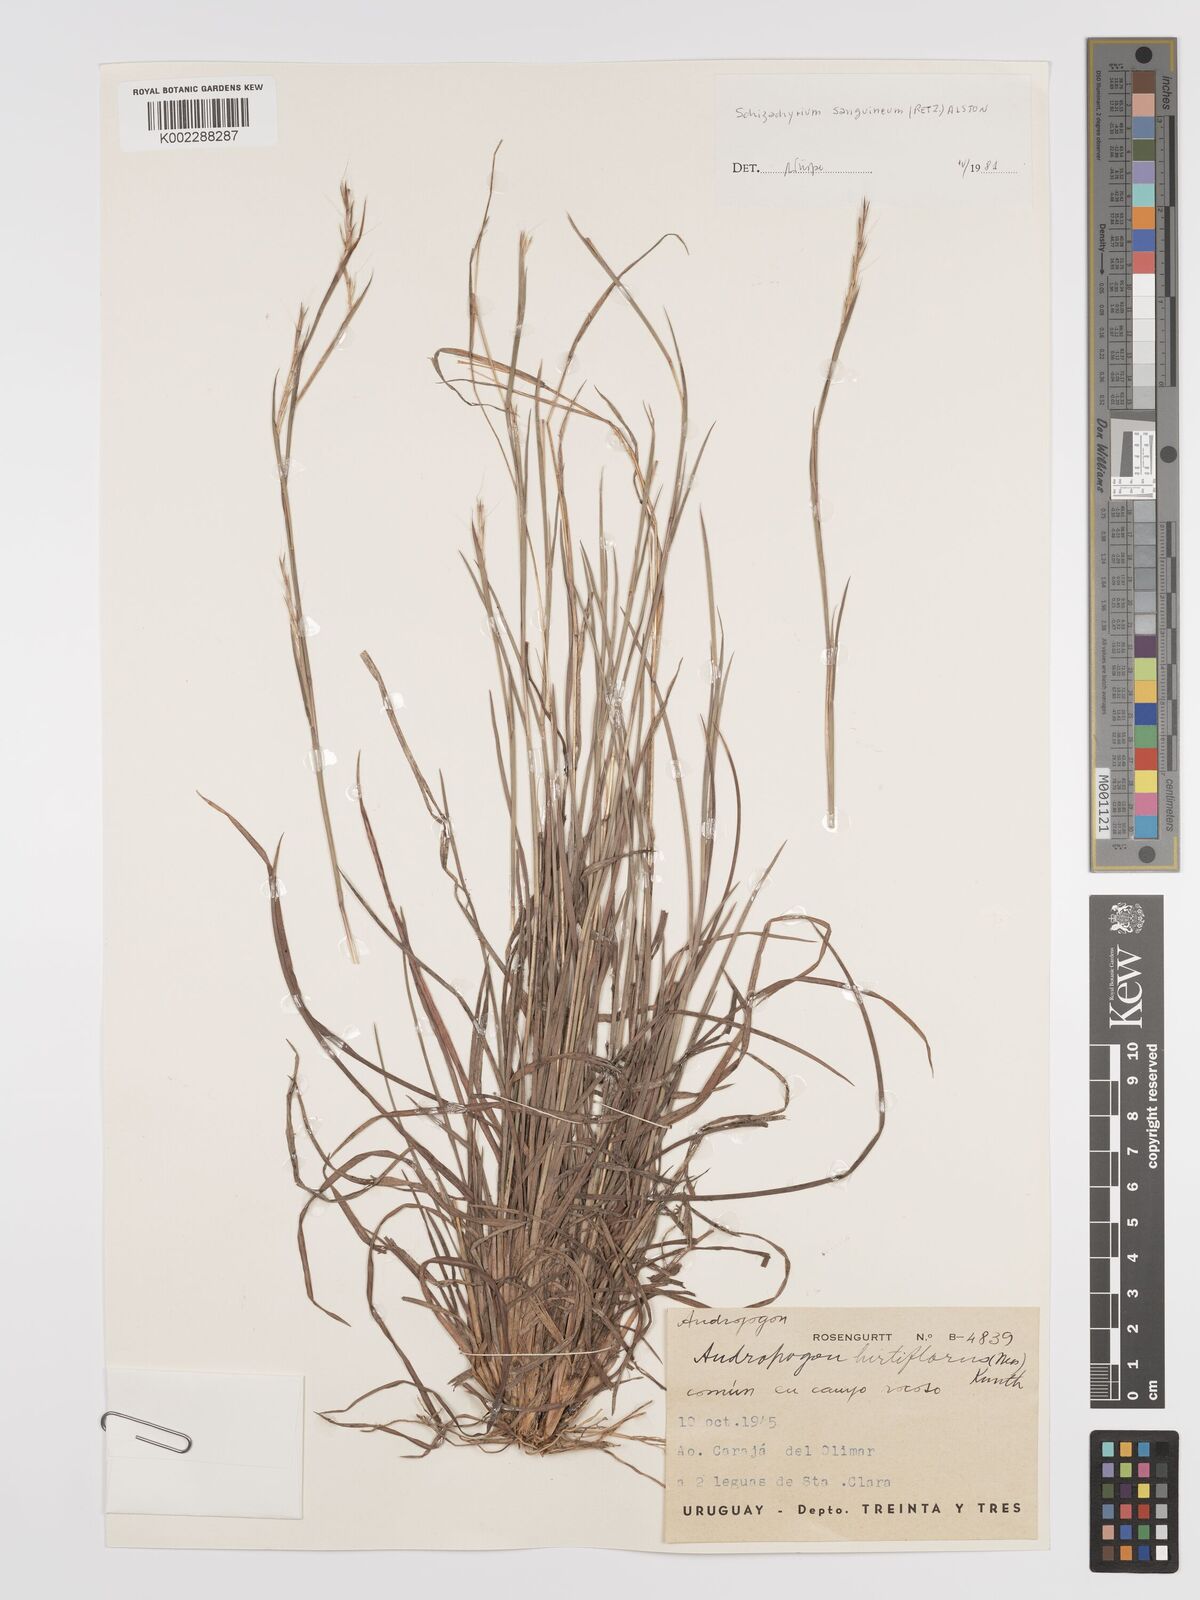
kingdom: Plantae
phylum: Tracheophyta
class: Liliopsida
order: Poales
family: Poaceae
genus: Schizachyrium
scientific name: Schizachyrium sanguineum
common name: Crimson bluestem
